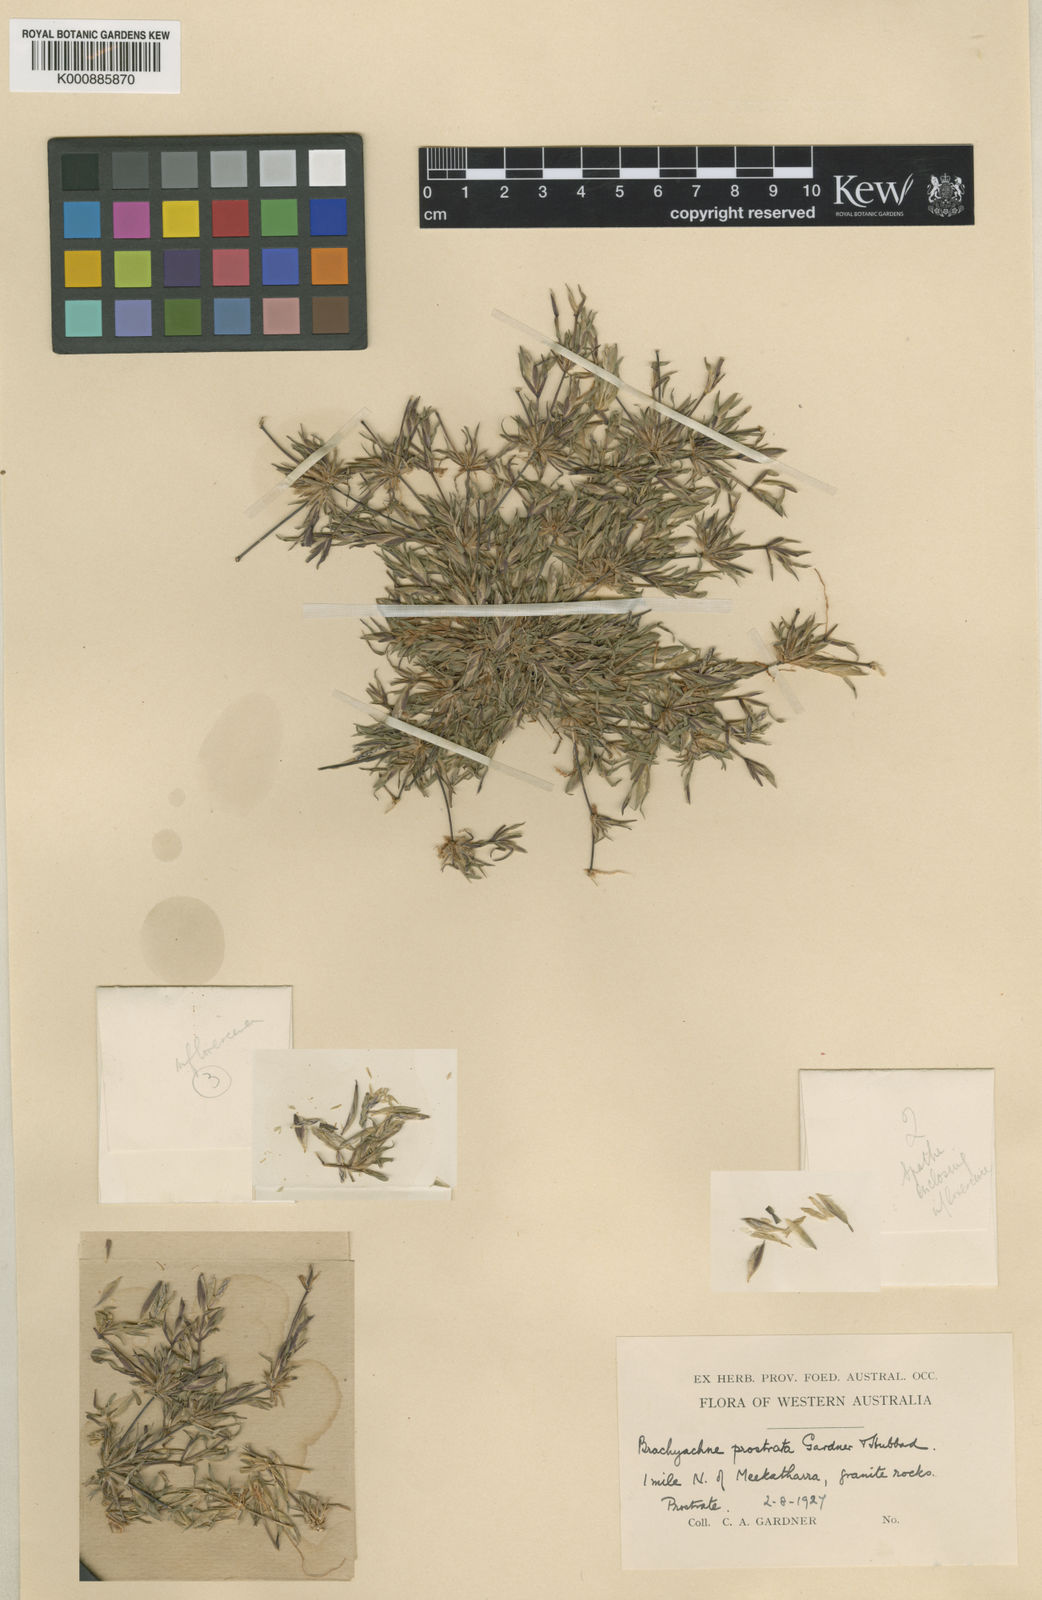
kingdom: Plantae
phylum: Tracheophyta
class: Liliopsida
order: Poales
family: Poaceae
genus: Cynodon
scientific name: Cynodon prostratus
